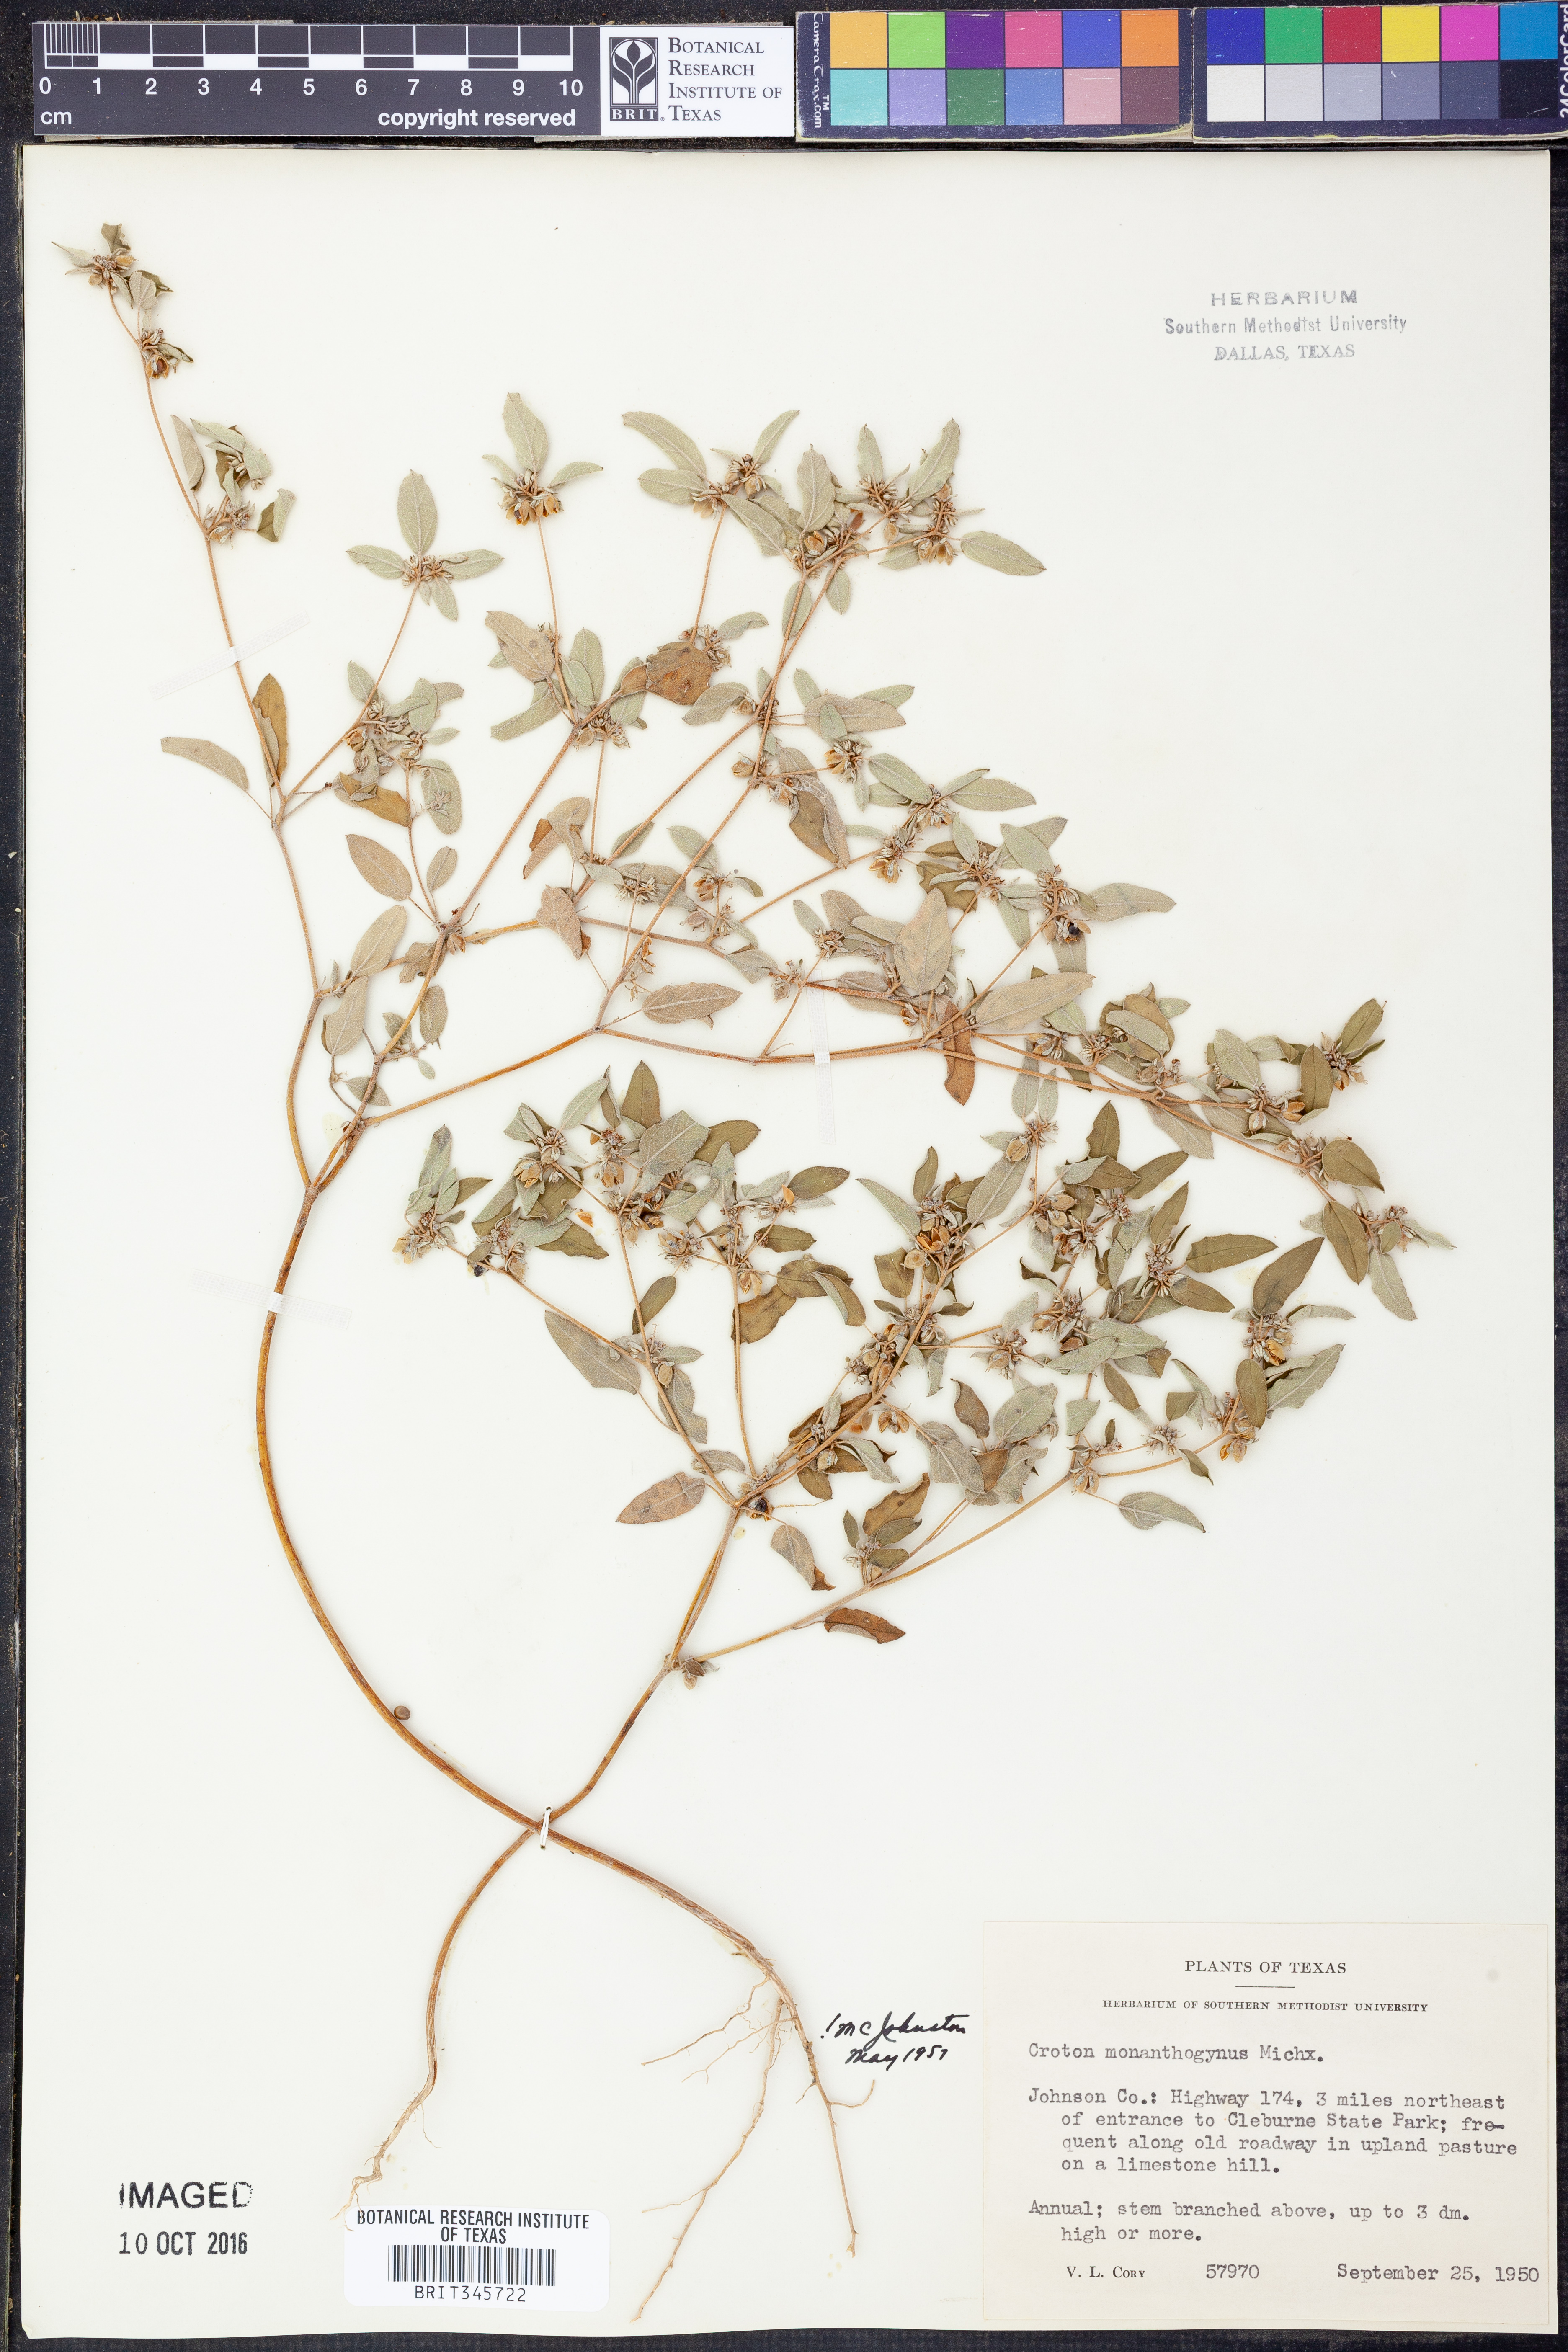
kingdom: Plantae
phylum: Tracheophyta
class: Magnoliopsida
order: Malpighiales
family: Euphorbiaceae
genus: Croton
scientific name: Croton monanthogynus
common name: One-seed croton
